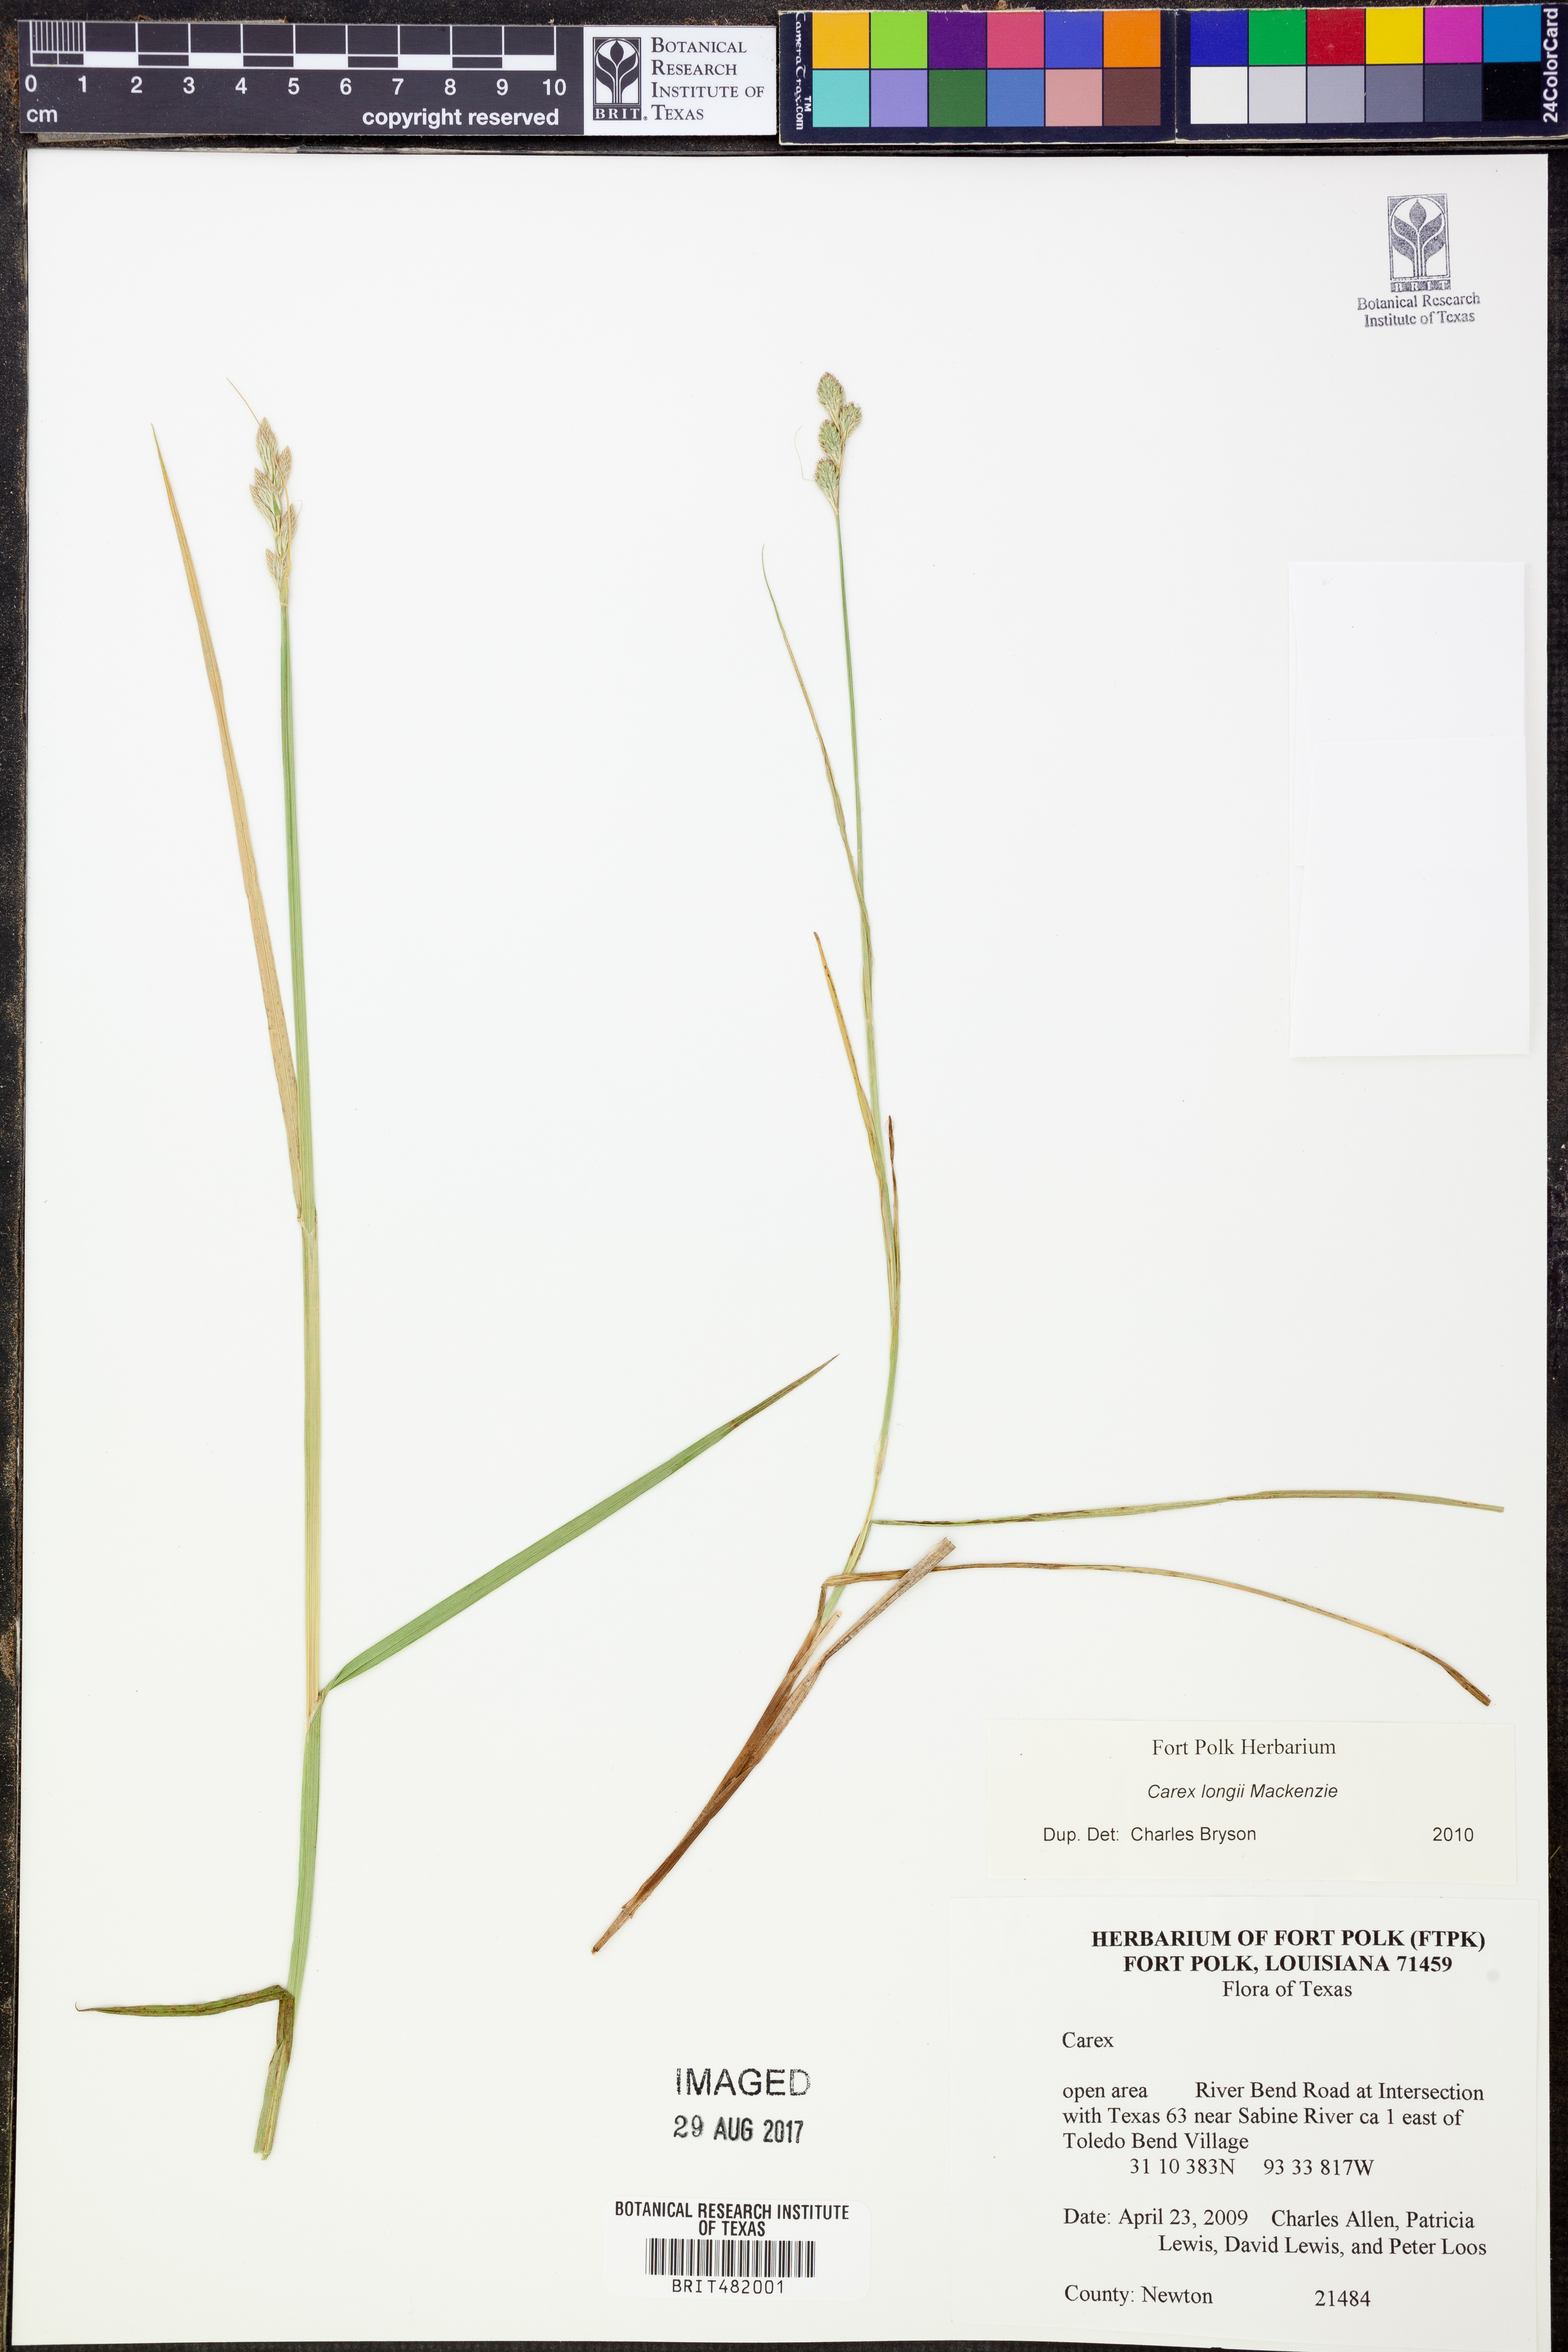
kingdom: Plantae
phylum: Tracheophyta
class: Liliopsida
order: Poales
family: Cyperaceae
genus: Carex
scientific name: Carex longii
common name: Long's sedge
